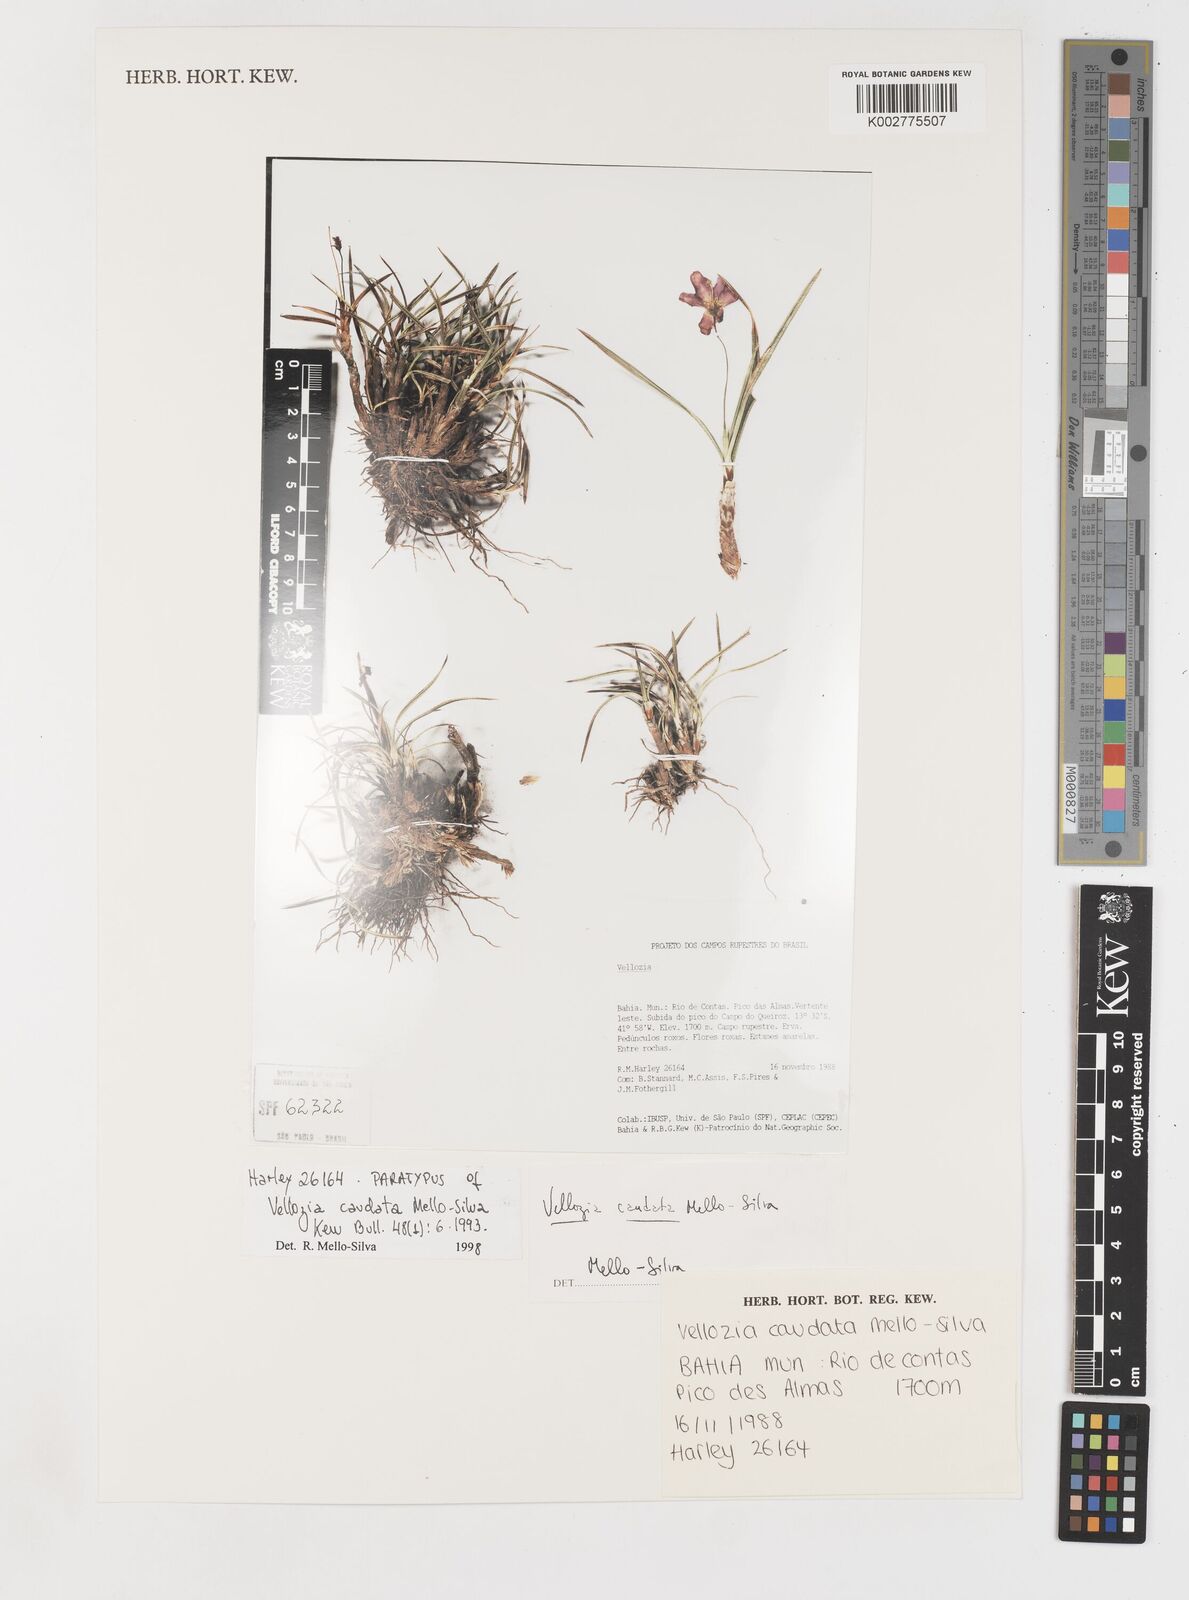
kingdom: Plantae
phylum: Tracheophyta
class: Liliopsida
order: Pandanales
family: Velloziaceae
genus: Vellozia
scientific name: Vellozia caudata
